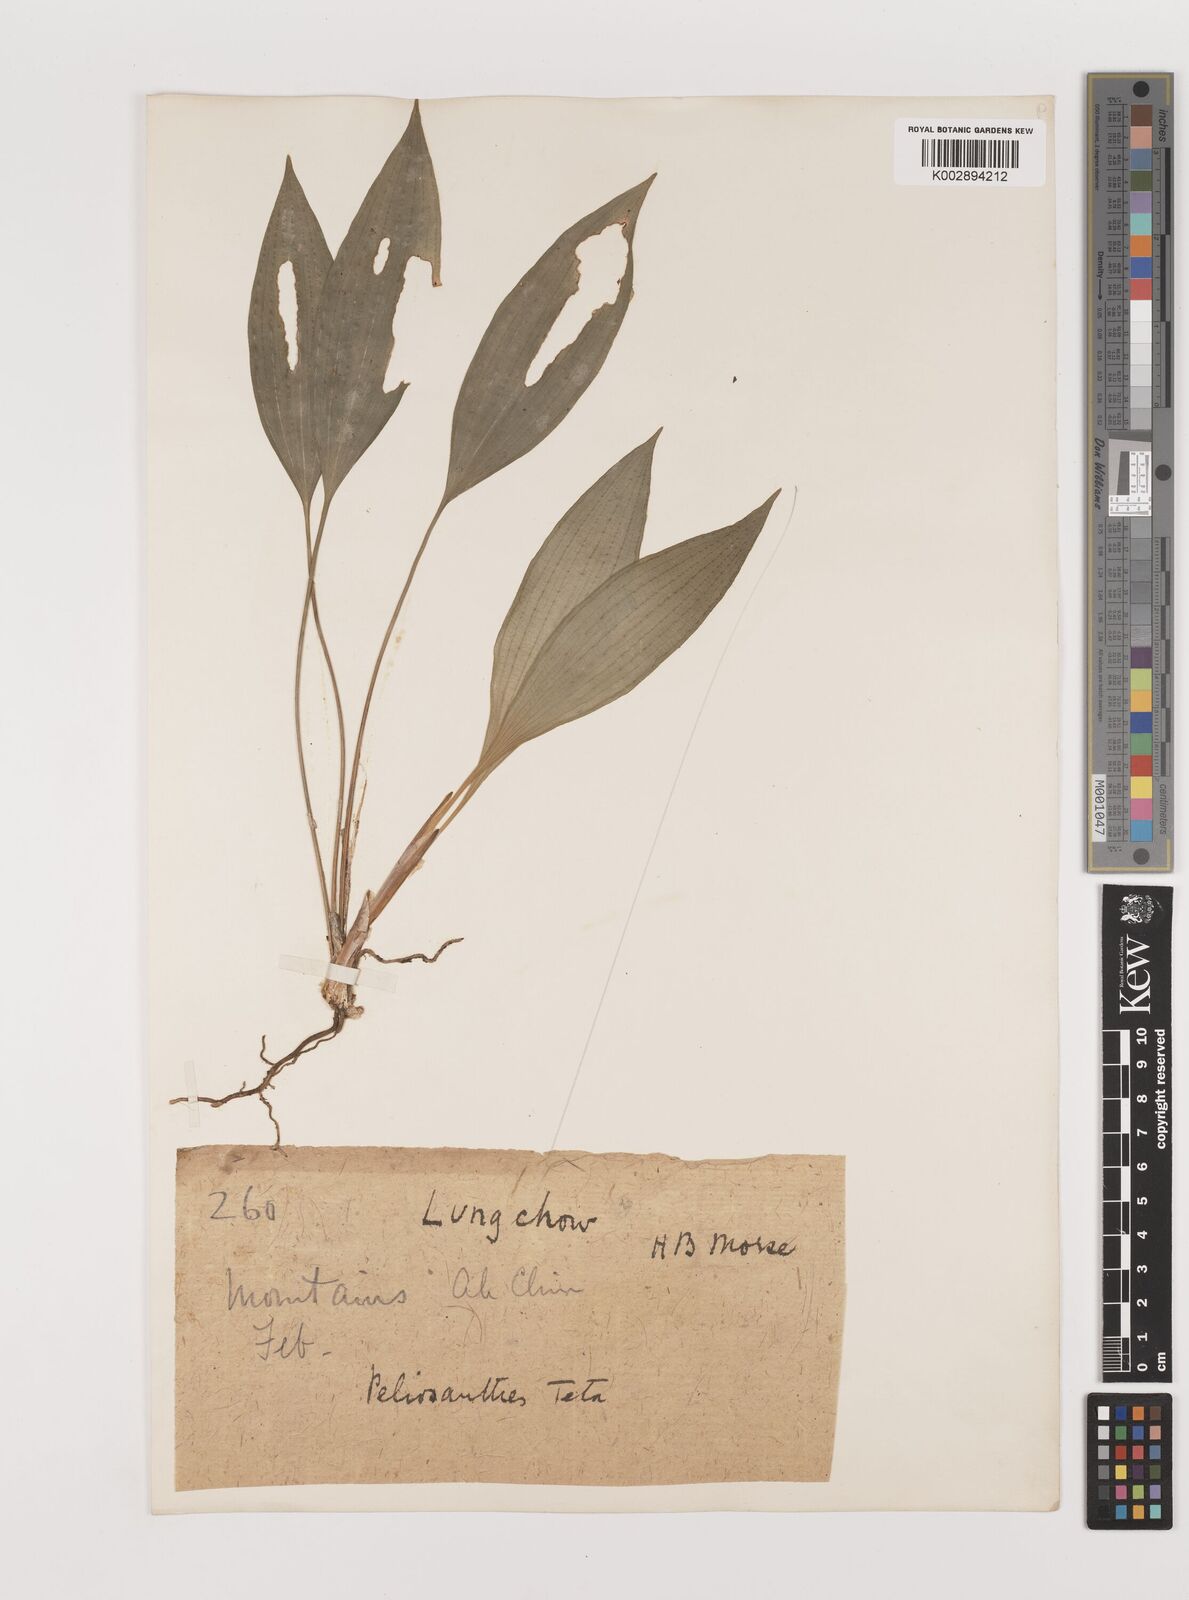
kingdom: Plantae
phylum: Tracheophyta
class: Liliopsida
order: Asparagales
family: Asparagaceae
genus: Peliosanthes
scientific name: Peliosanthes teta
